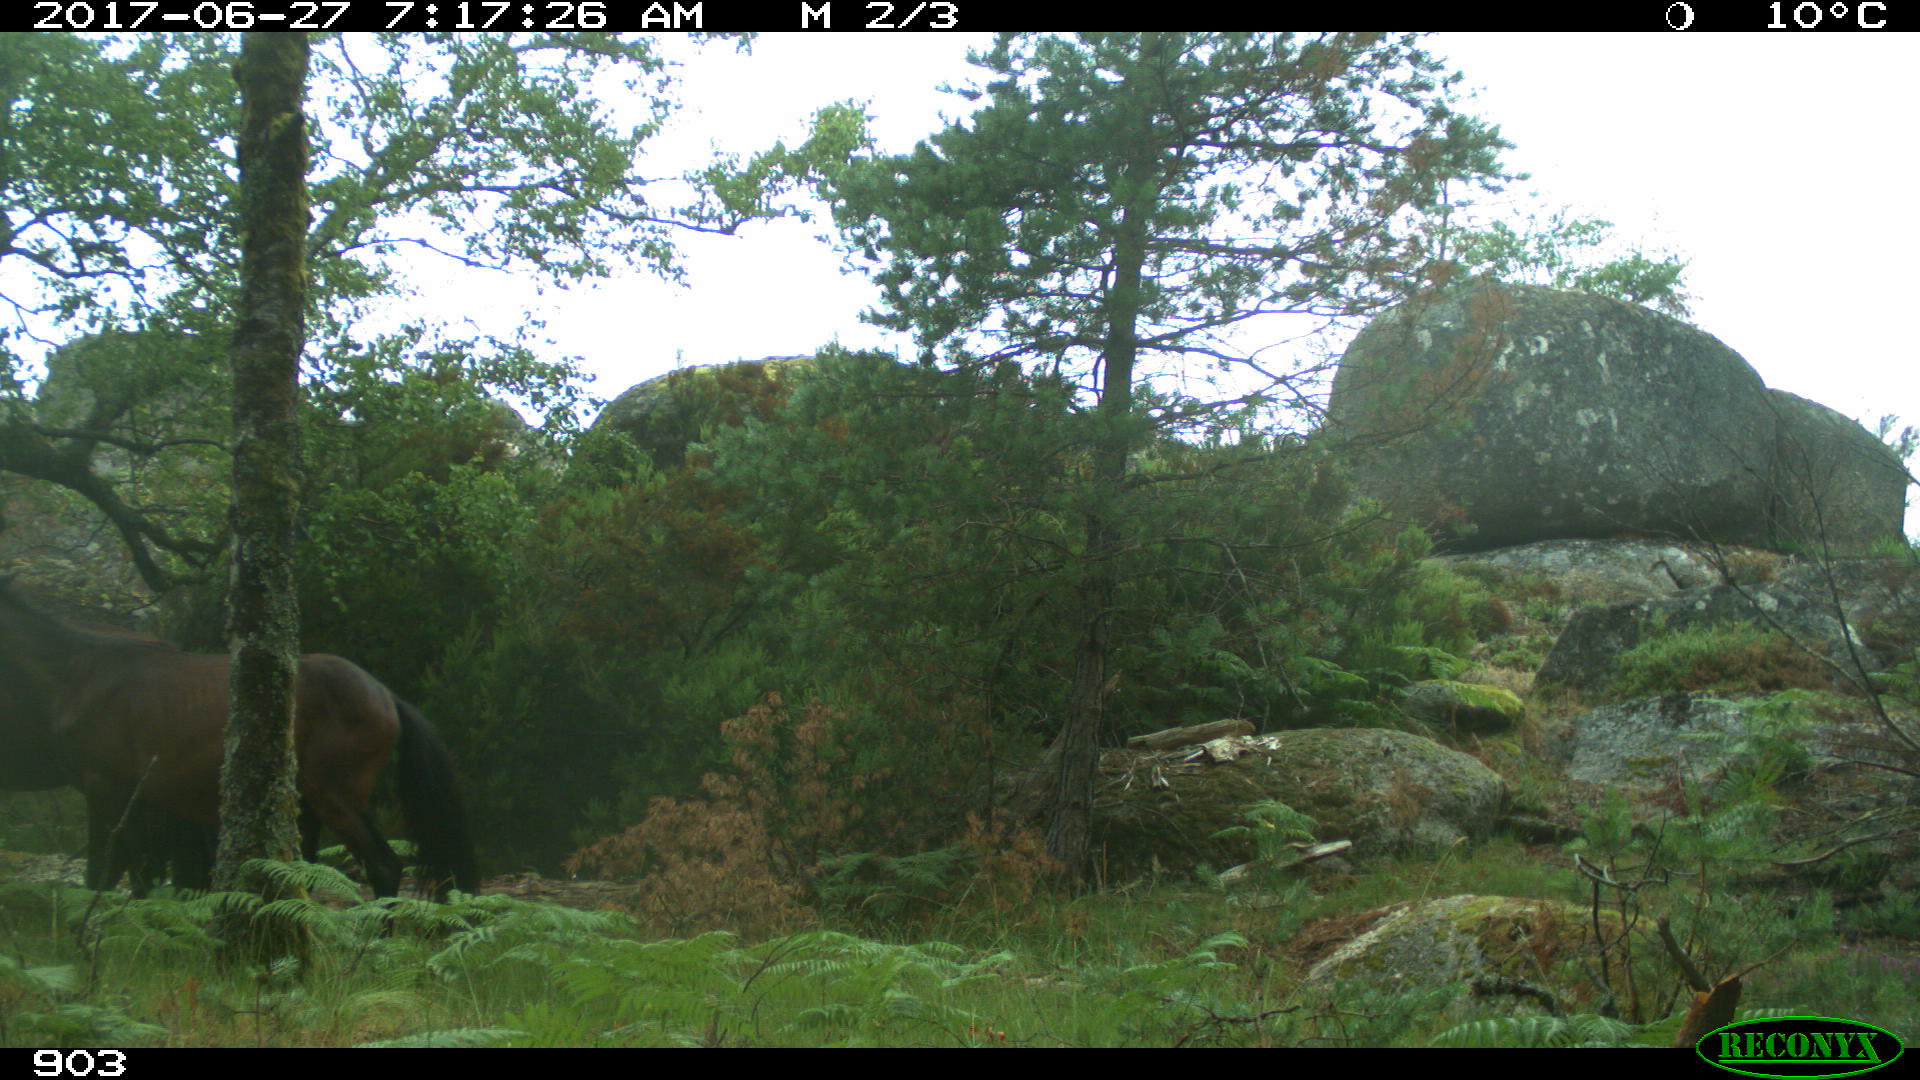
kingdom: Animalia
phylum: Chordata
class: Mammalia
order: Perissodactyla
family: Equidae
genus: Equus
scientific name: Equus caballus
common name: Horse
